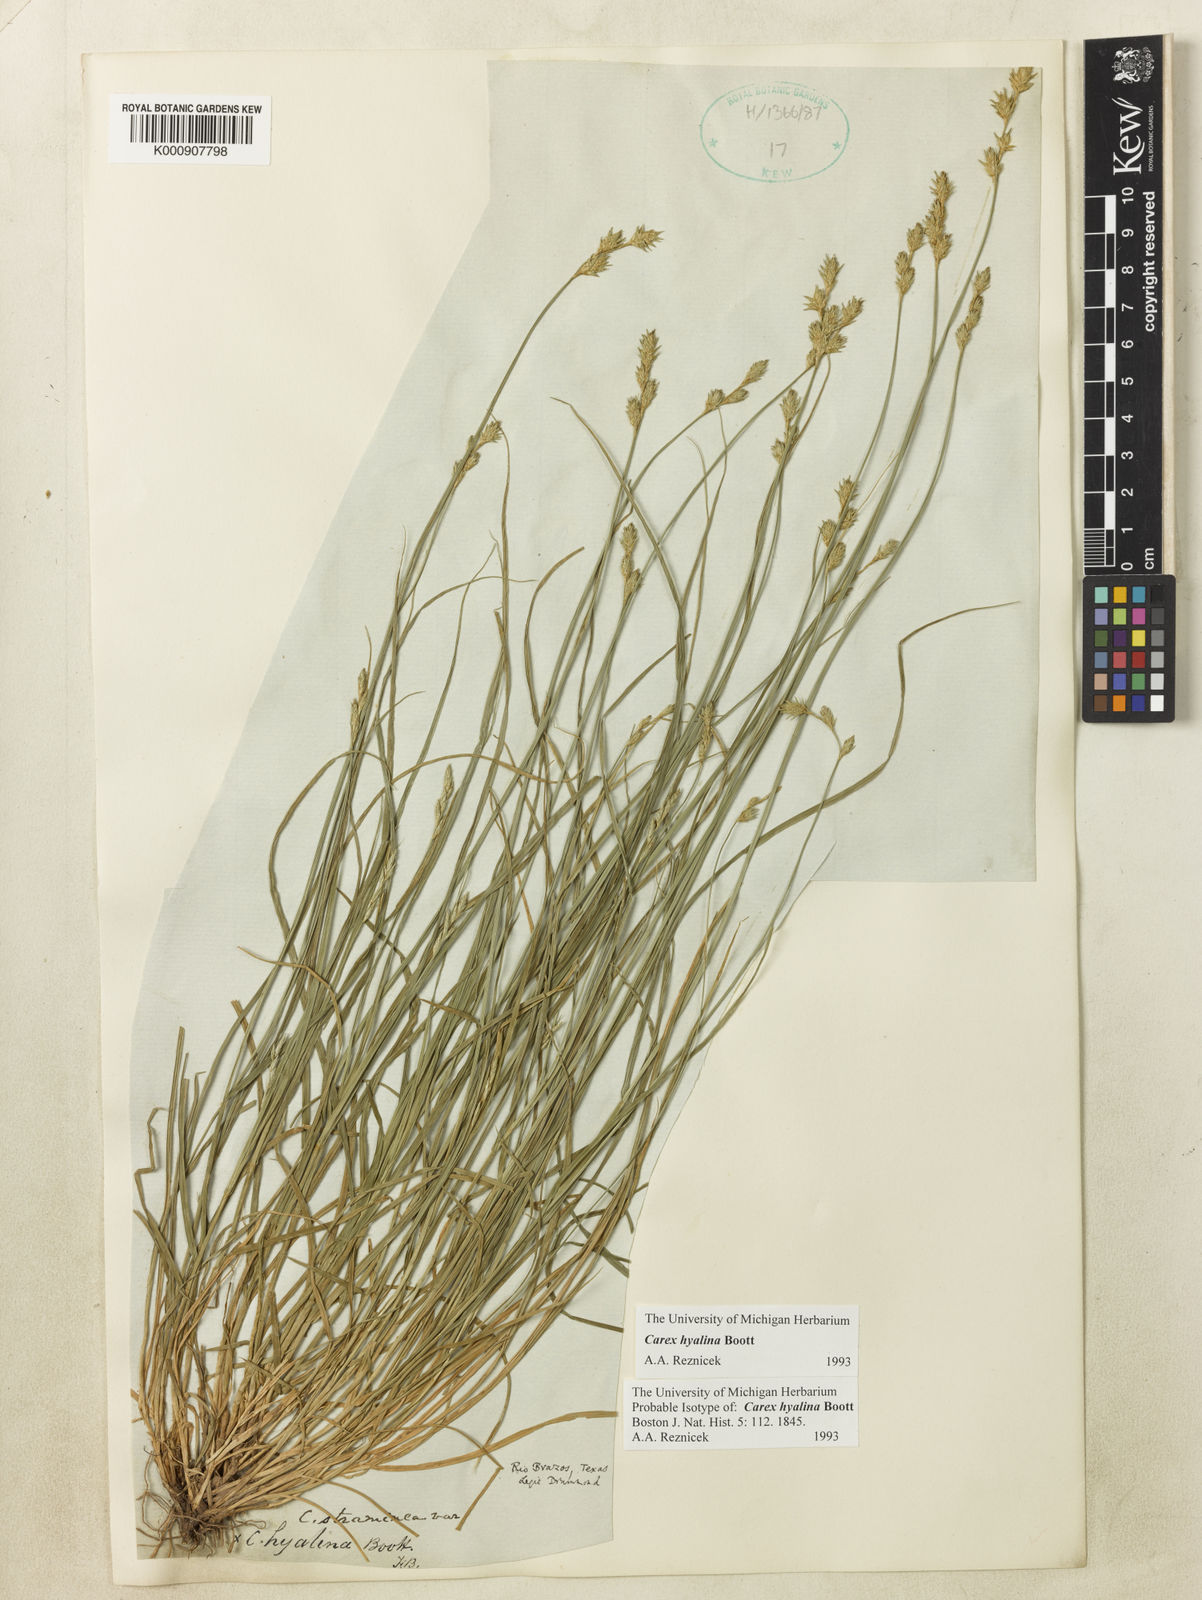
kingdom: Plantae
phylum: Tracheophyta
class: Liliopsida
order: Poales
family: Cyperaceae
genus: Carex
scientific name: Carex hyalina
